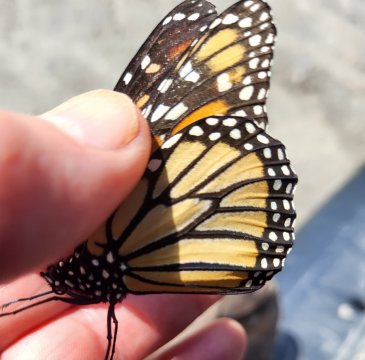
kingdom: Animalia
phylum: Arthropoda
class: Insecta
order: Lepidoptera
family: Nymphalidae
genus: Danaus
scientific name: Danaus plexippus
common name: Monarch
